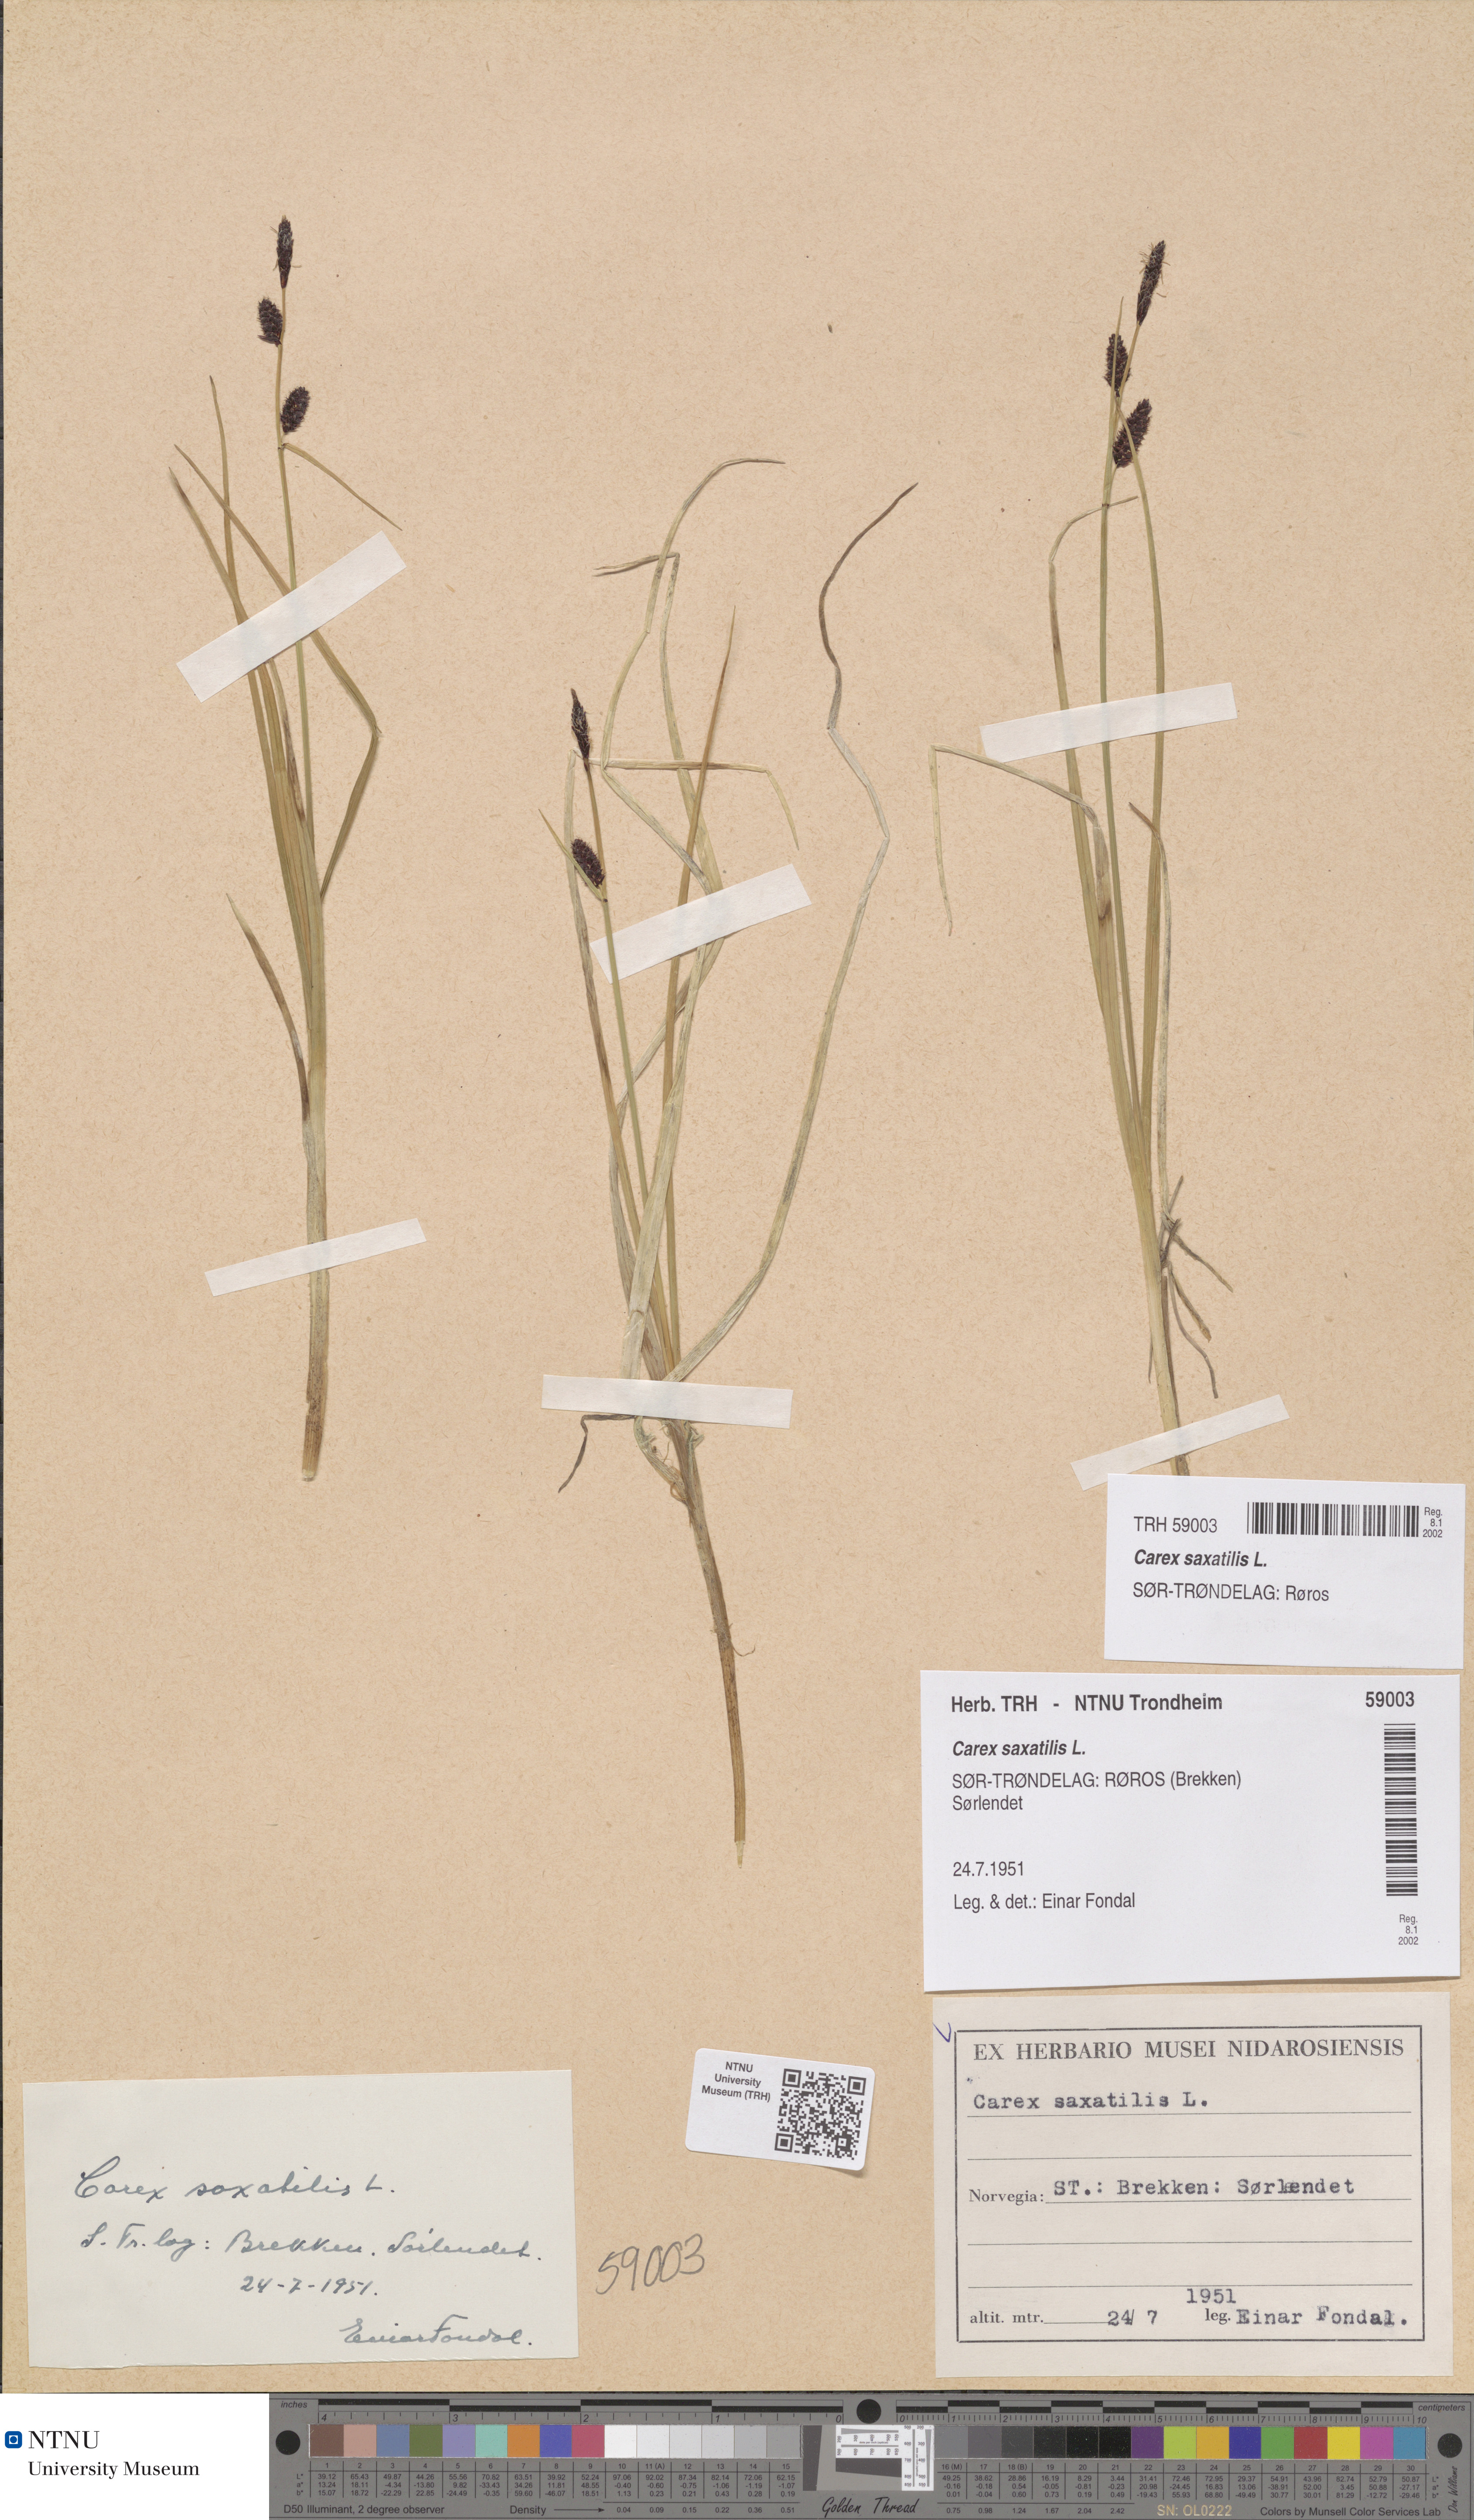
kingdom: Plantae
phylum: Tracheophyta
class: Liliopsida
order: Poales
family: Cyperaceae
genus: Carex
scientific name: Carex saxatilis
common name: Russet sedge
